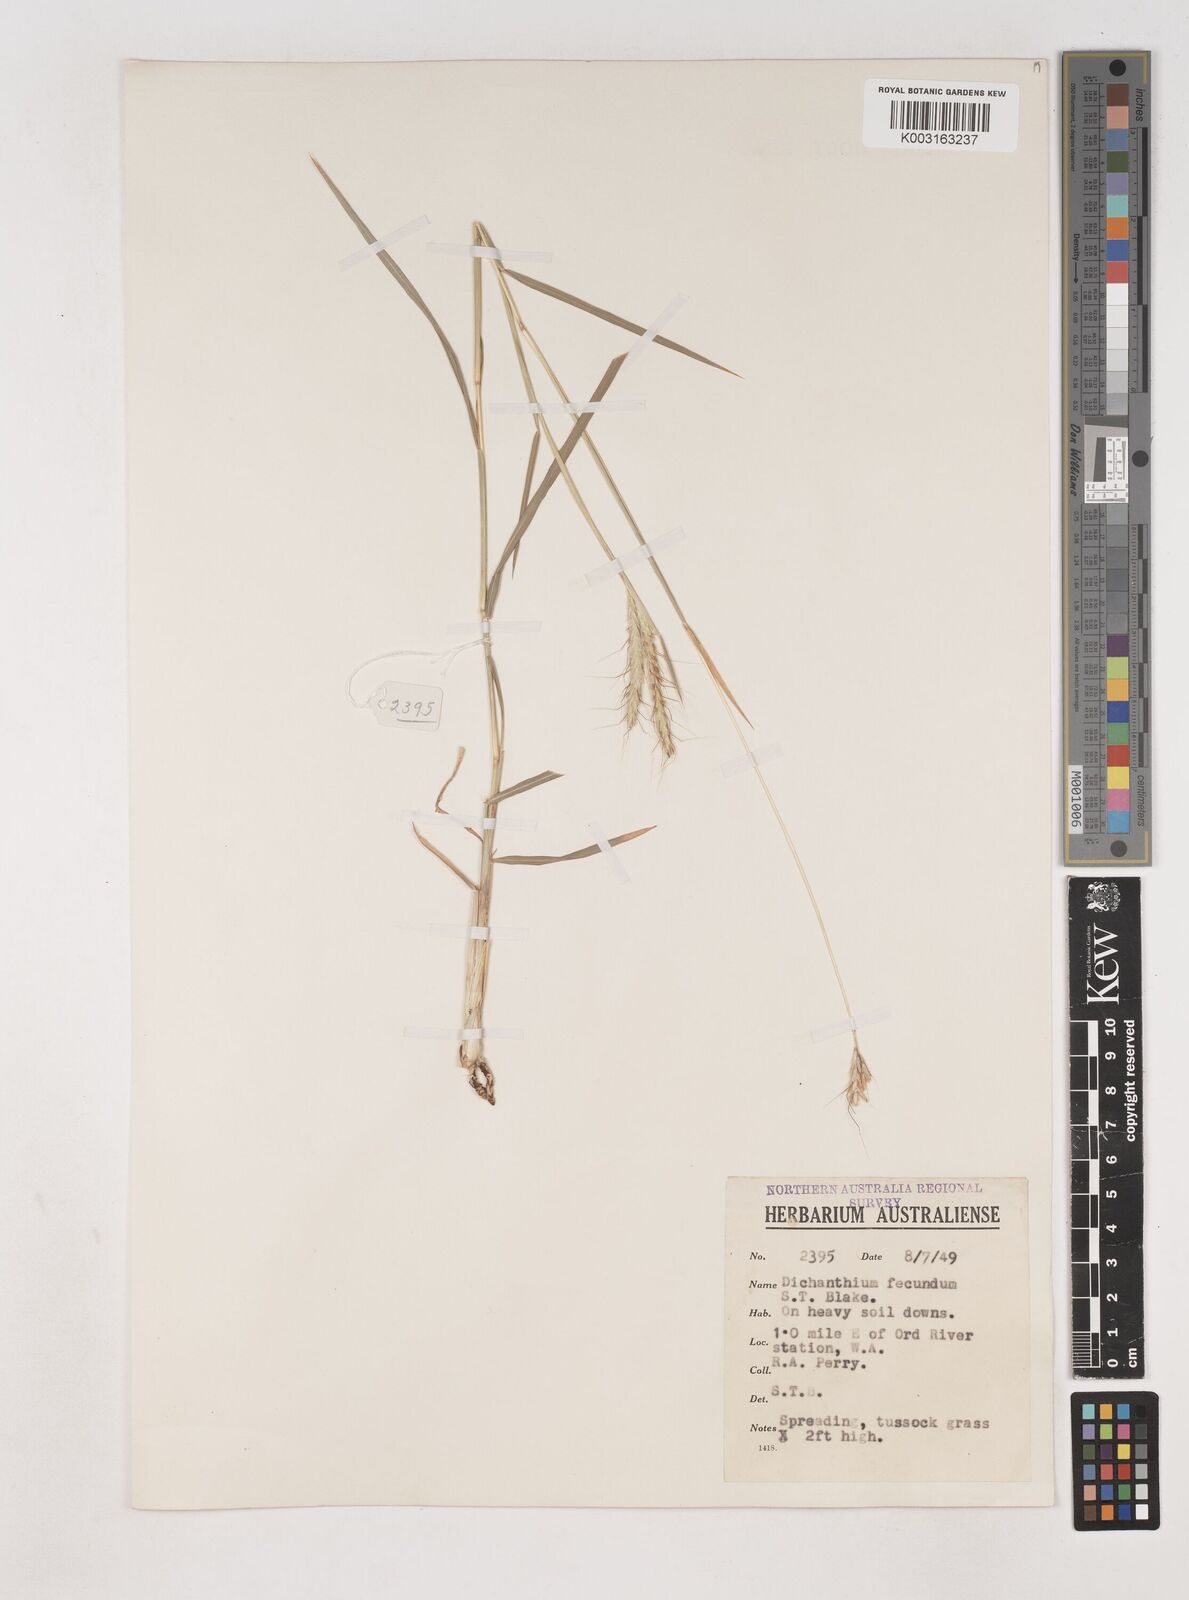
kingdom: Plantae
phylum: Tracheophyta
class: Liliopsida
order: Poales
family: Poaceae
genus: Dichanthium
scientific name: Dichanthium fecundum
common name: Bundle-bundle
